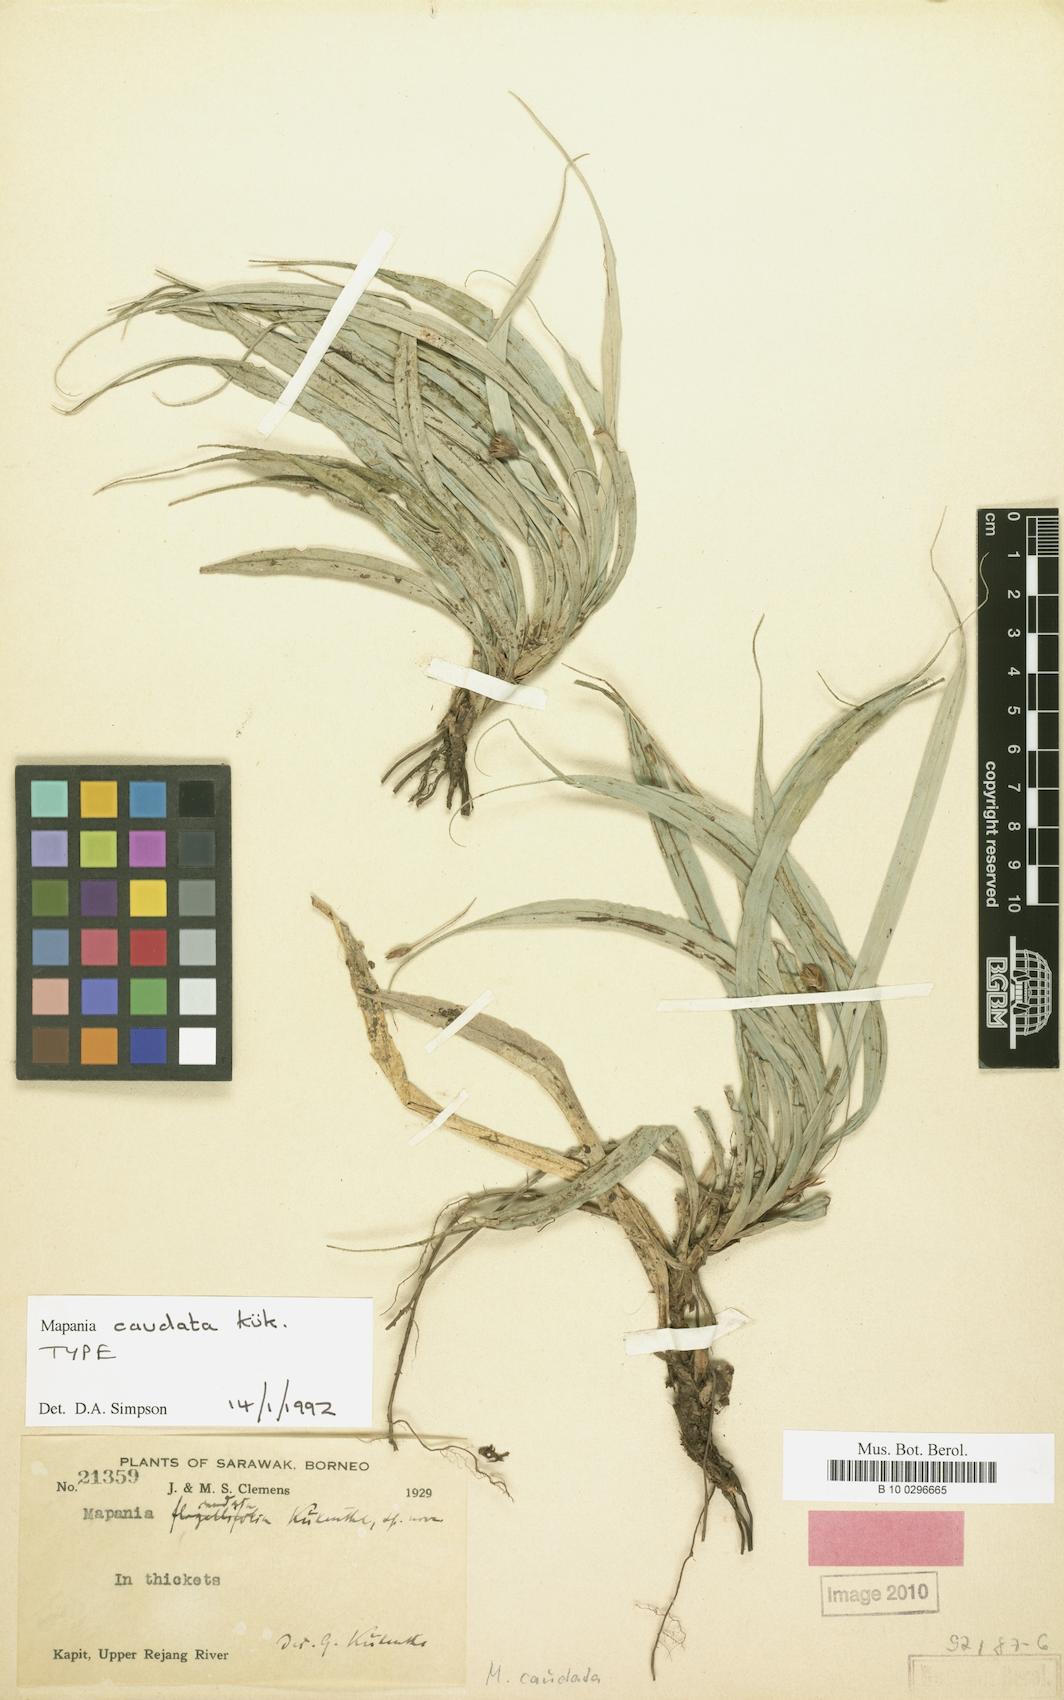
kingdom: Plantae
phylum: Tracheophyta
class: Liliopsida
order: Poales
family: Cyperaceae
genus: Mapania
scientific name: Mapania caudata
